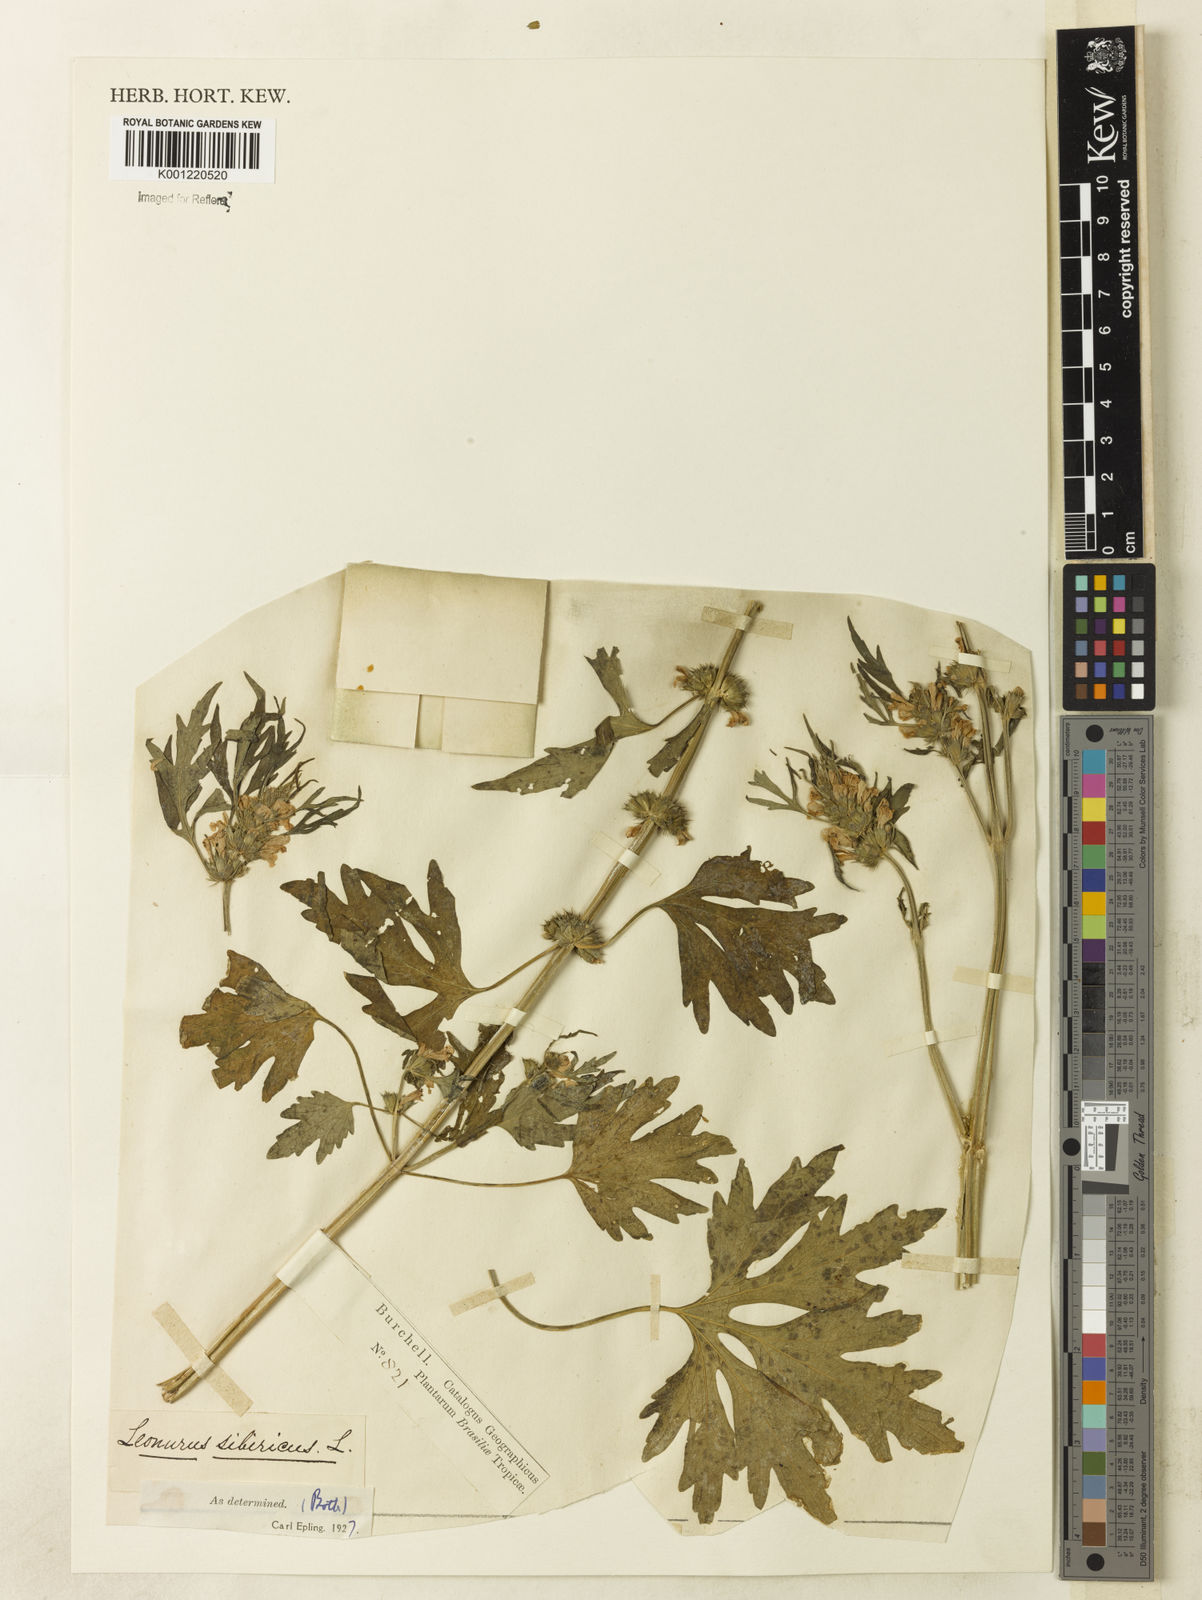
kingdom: Plantae
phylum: Tracheophyta
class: Magnoliopsida
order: Lamiales
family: Lamiaceae
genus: Leonurus
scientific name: Leonurus japonicus
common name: Honeyweed
